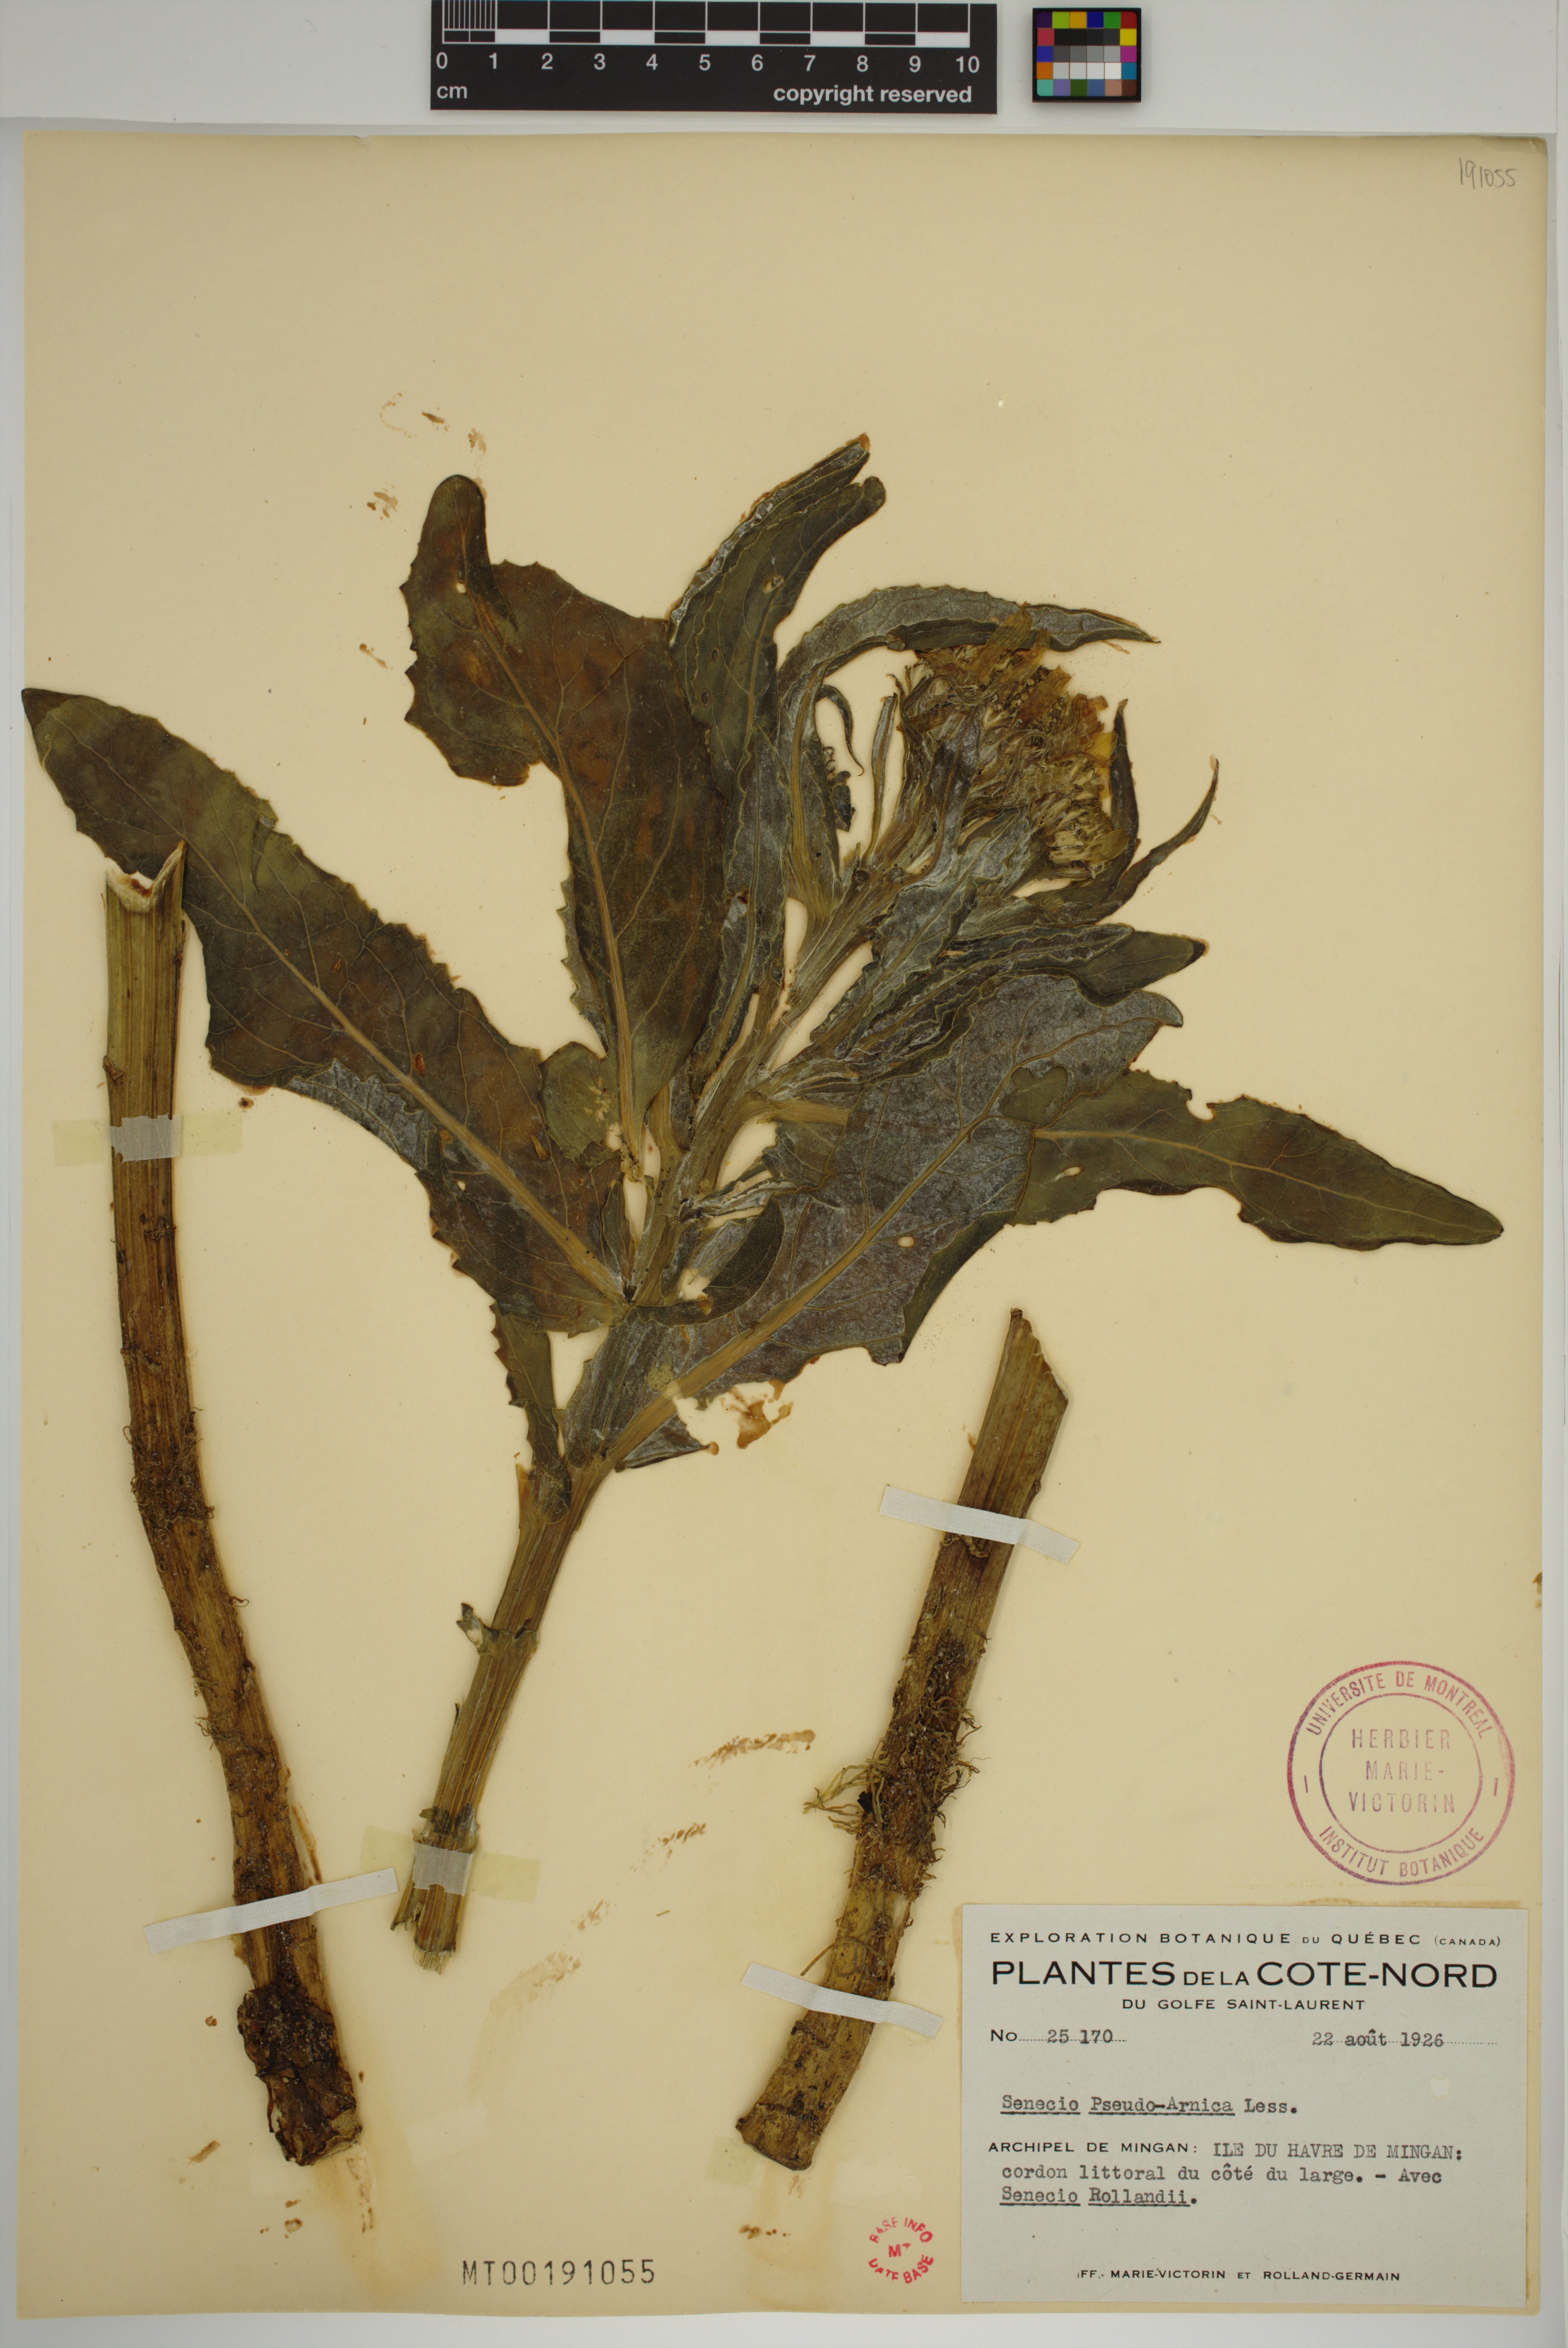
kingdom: Plantae
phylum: Tracheophyta
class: Magnoliopsida
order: Asterales
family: Asteraceae
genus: Jacobaea
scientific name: Jacobaea pseudoarnica
